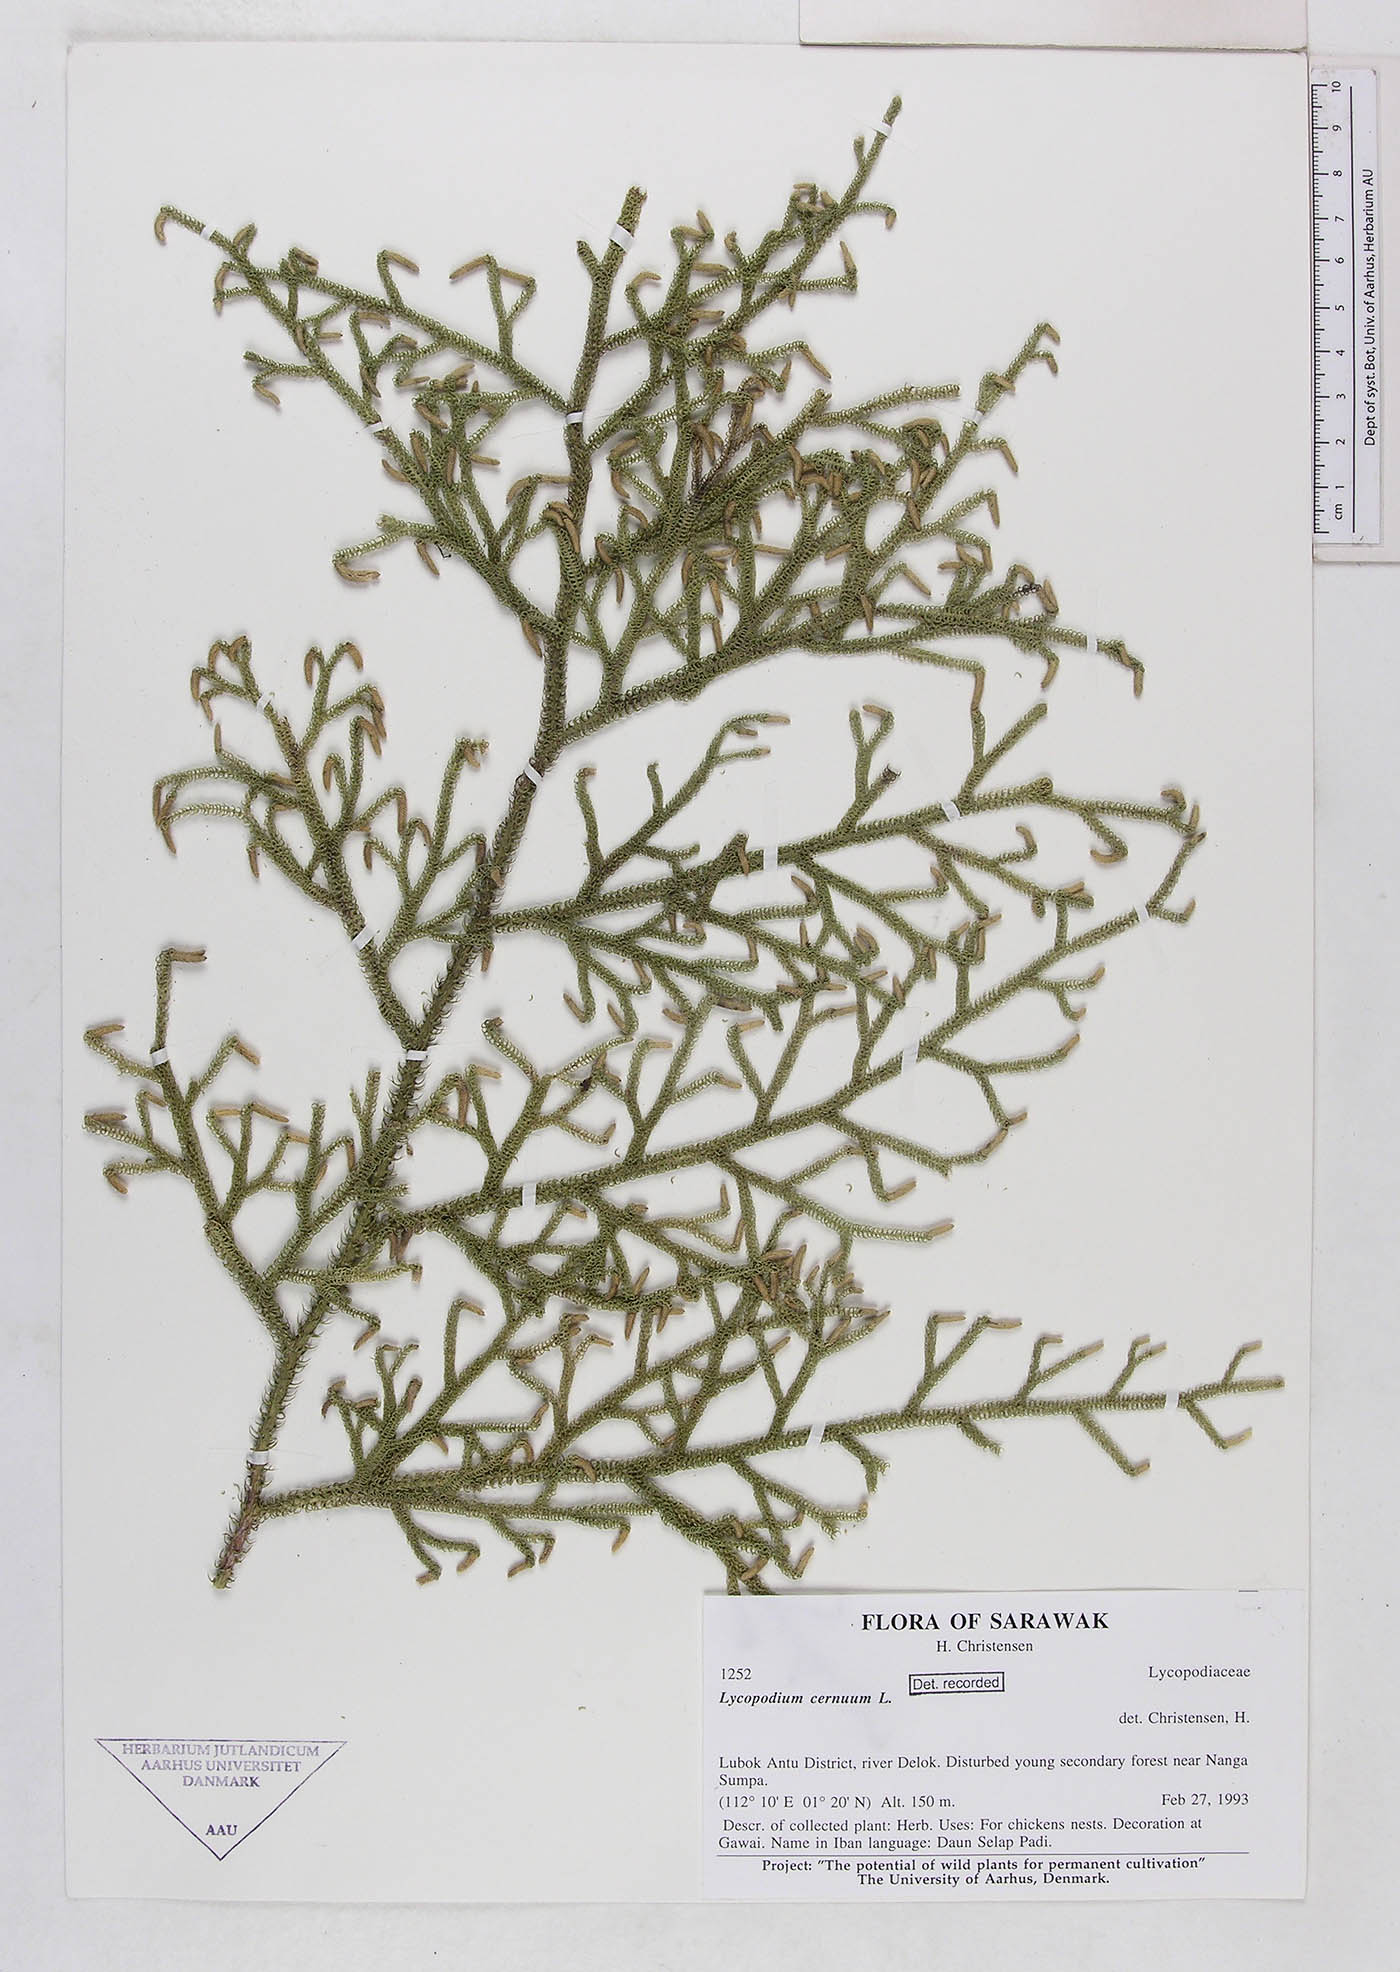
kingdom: Plantae
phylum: Tracheophyta
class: Lycopodiopsida
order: Lycopodiales
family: Lycopodiaceae
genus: Palhinhaea
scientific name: Palhinhaea cernua
